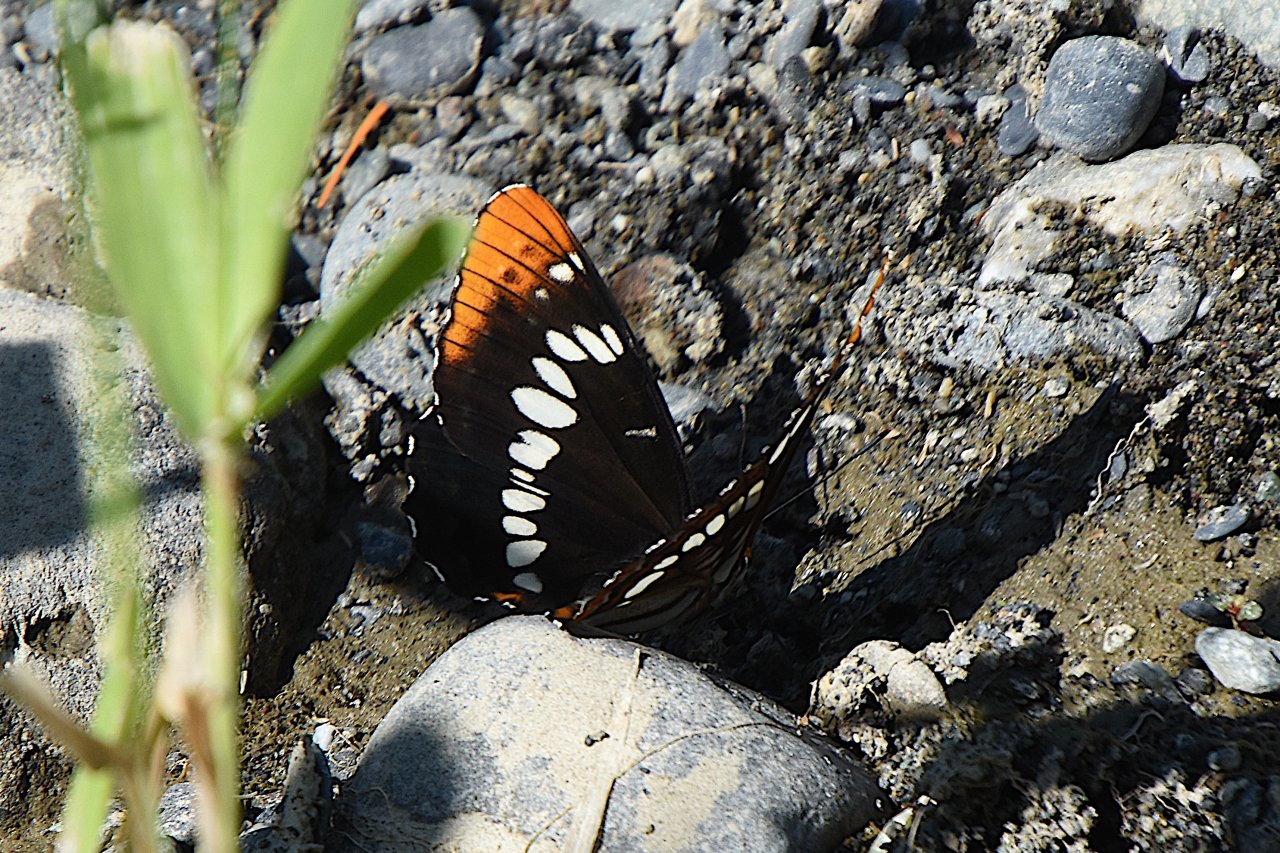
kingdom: Animalia
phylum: Arthropoda
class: Insecta
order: Lepidoptera
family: Nymphalidae
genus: Limenitis
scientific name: Limenitis lorquini
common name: Lorquin's Admiral
